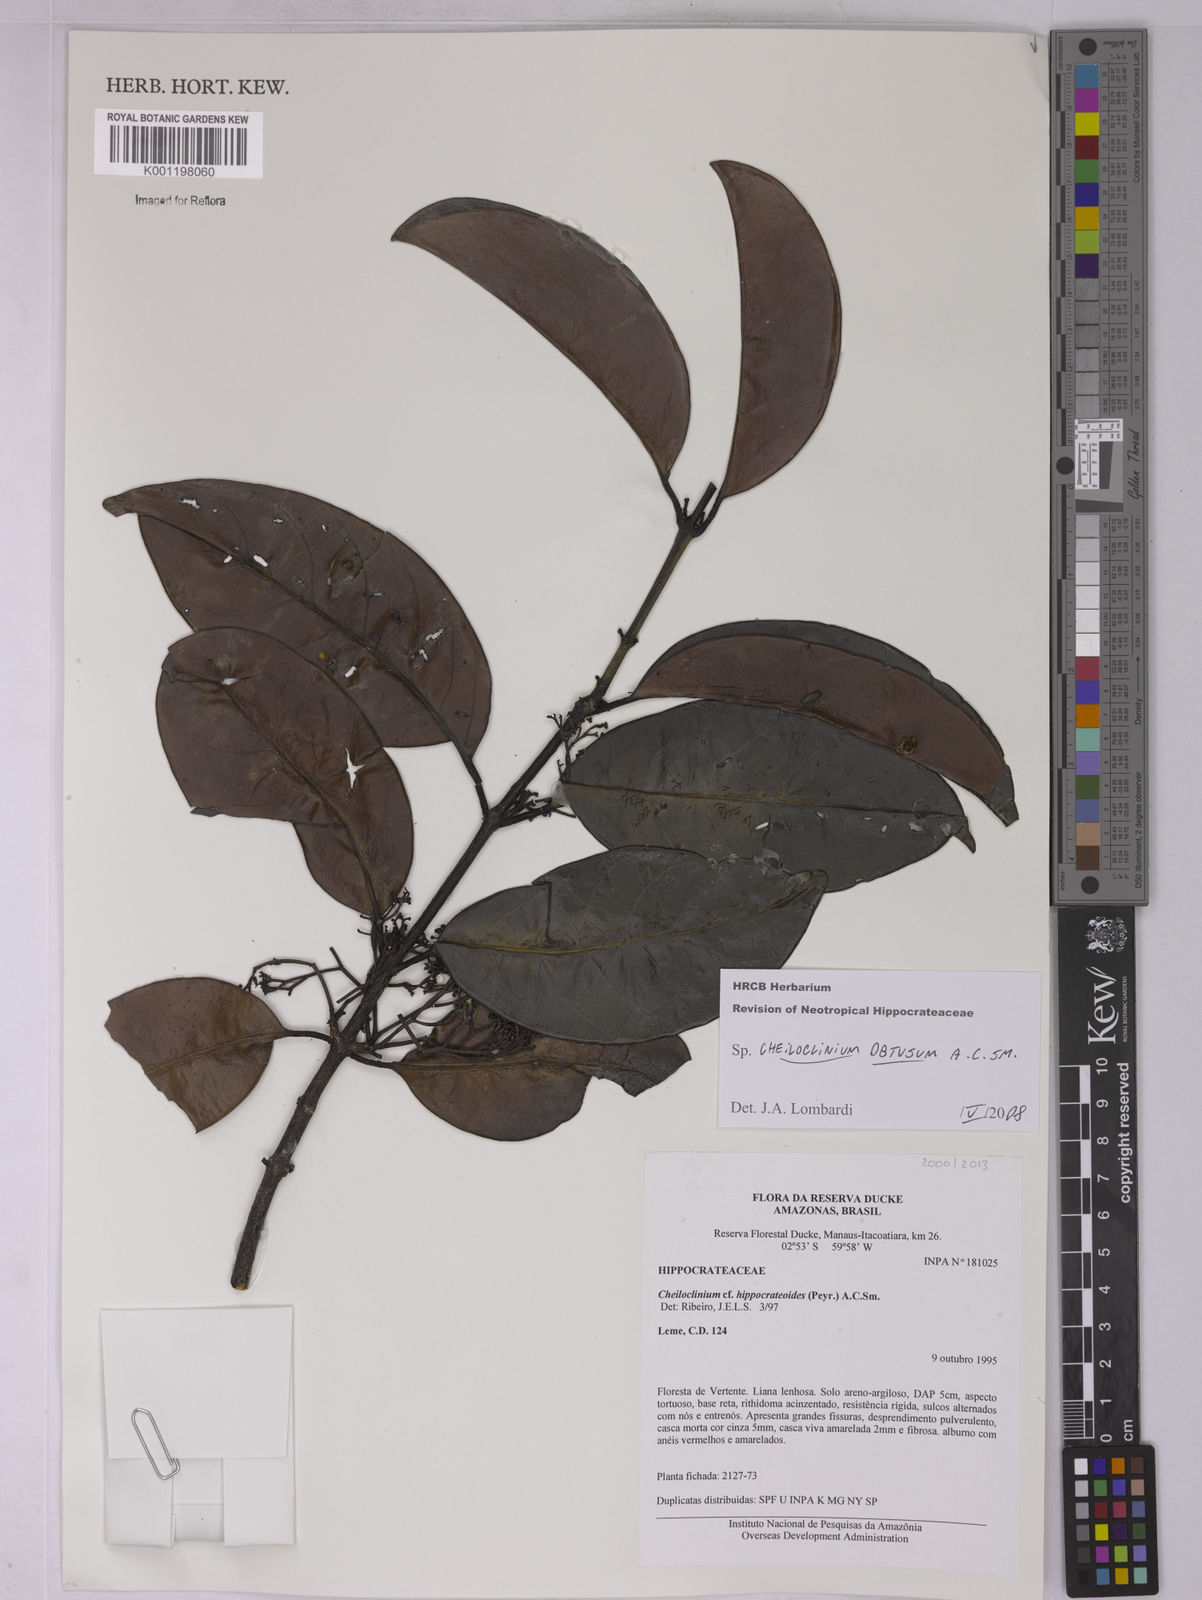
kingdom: Plantae
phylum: Tracheophyta
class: Magnoliopsida
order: Celastrales
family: Celastraceae
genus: Cheiloclinium
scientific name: Cheiloclinium obtusum
